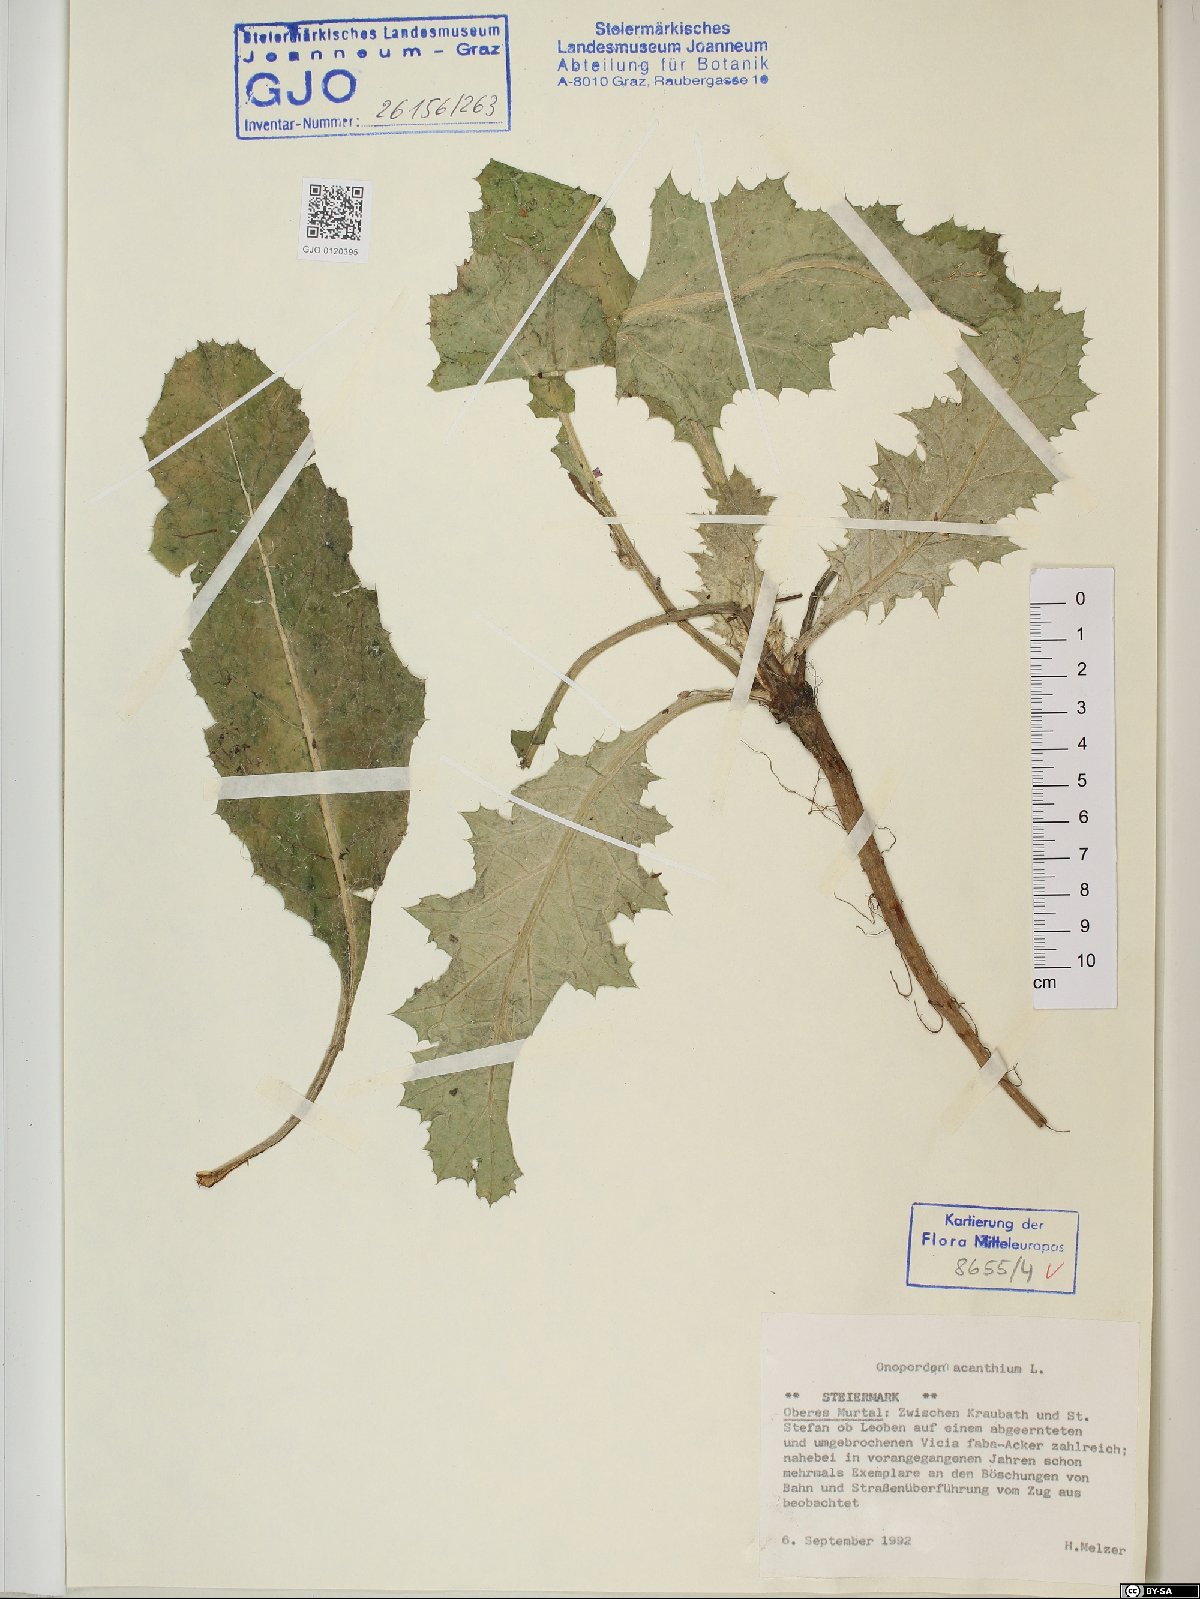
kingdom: Plantae
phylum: Tracheophyta
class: Magnoliopsida
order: Asterales
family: Asteraceae
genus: Onopordum
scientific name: Onopordum acanthium
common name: Scotch thistle
